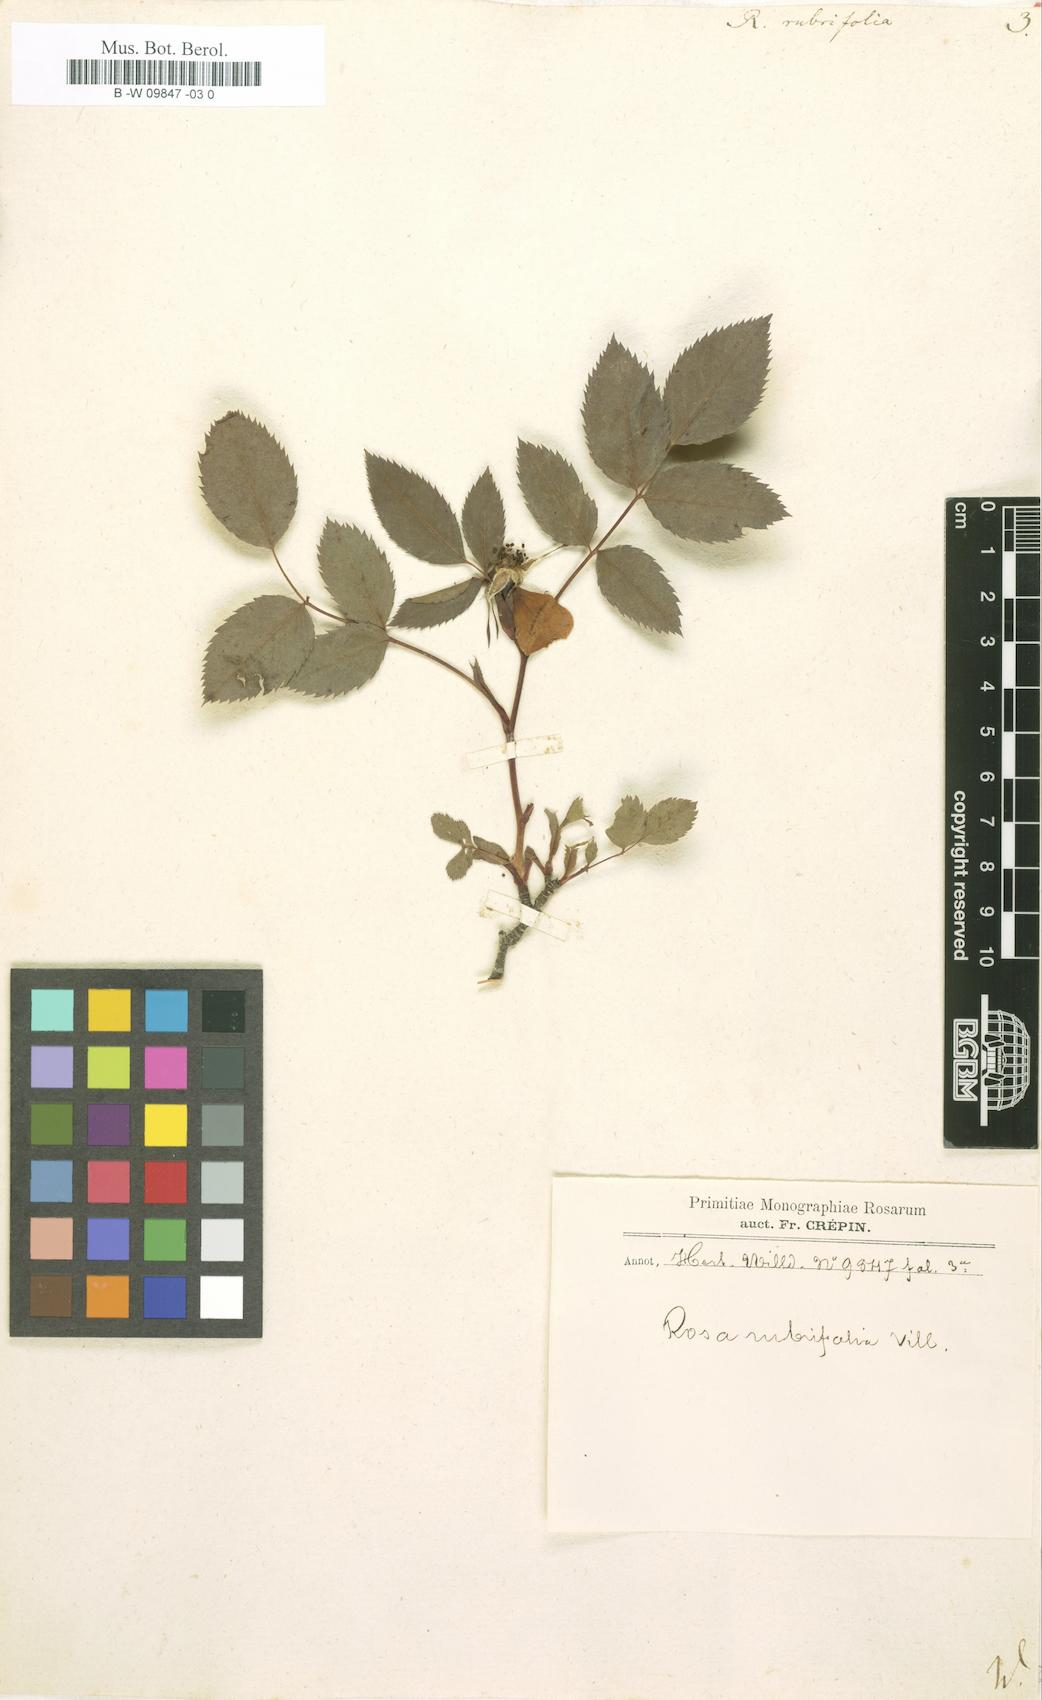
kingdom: Plantae
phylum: Tracheophyta
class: Magnoliopsida
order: Rosales
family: Rosaceae
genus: Rosa
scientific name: Rosa
